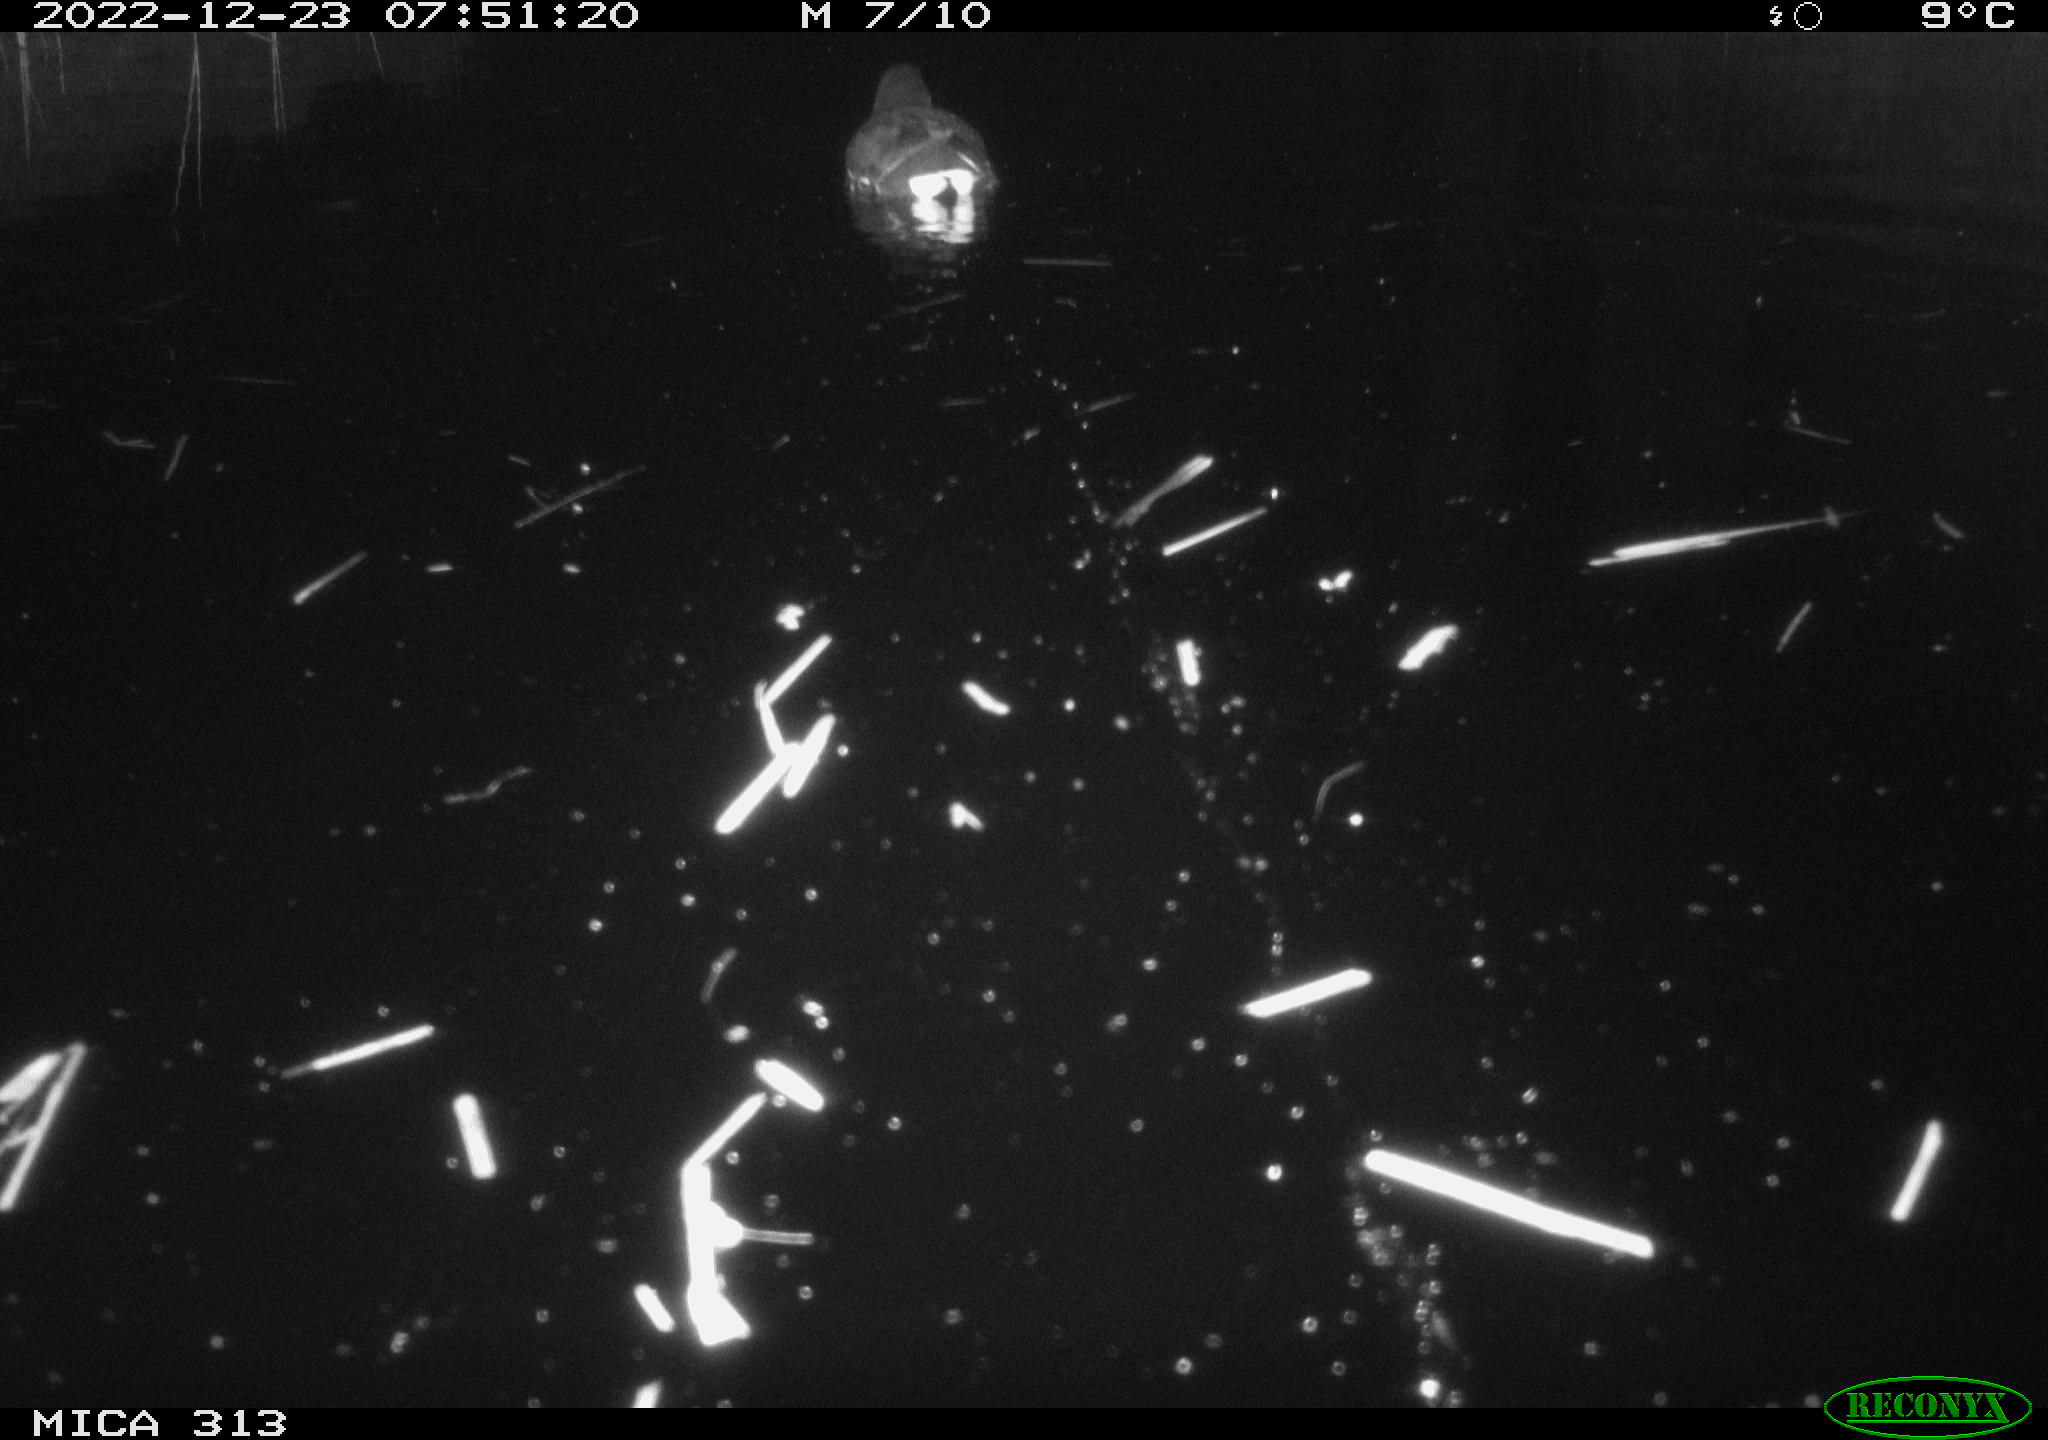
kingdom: Animalia
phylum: Chordata
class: Aves
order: Anseriformes
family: Anatidae
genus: Anas
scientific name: Anas
